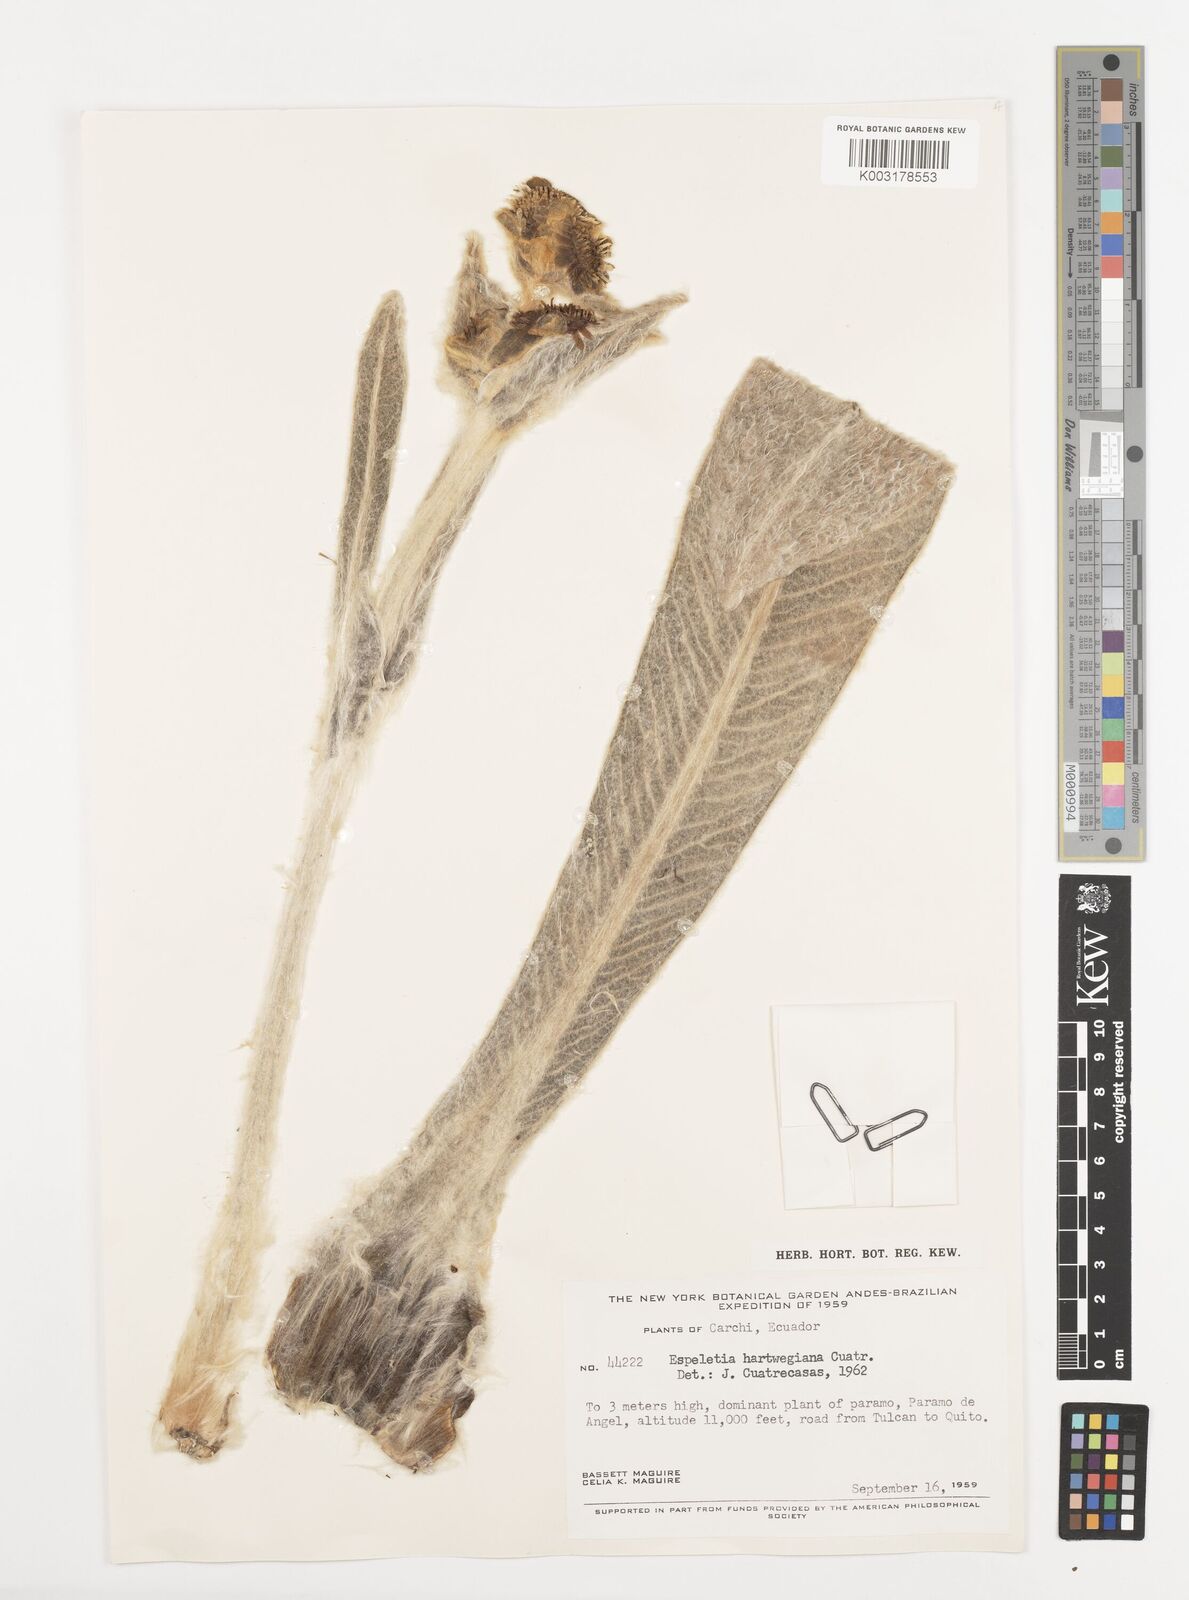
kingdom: Plantae
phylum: Tracheophyta
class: Magnoliopsida
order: Asterales
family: Asteraceae
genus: Espeletia
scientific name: Espeletia hartwegiana
